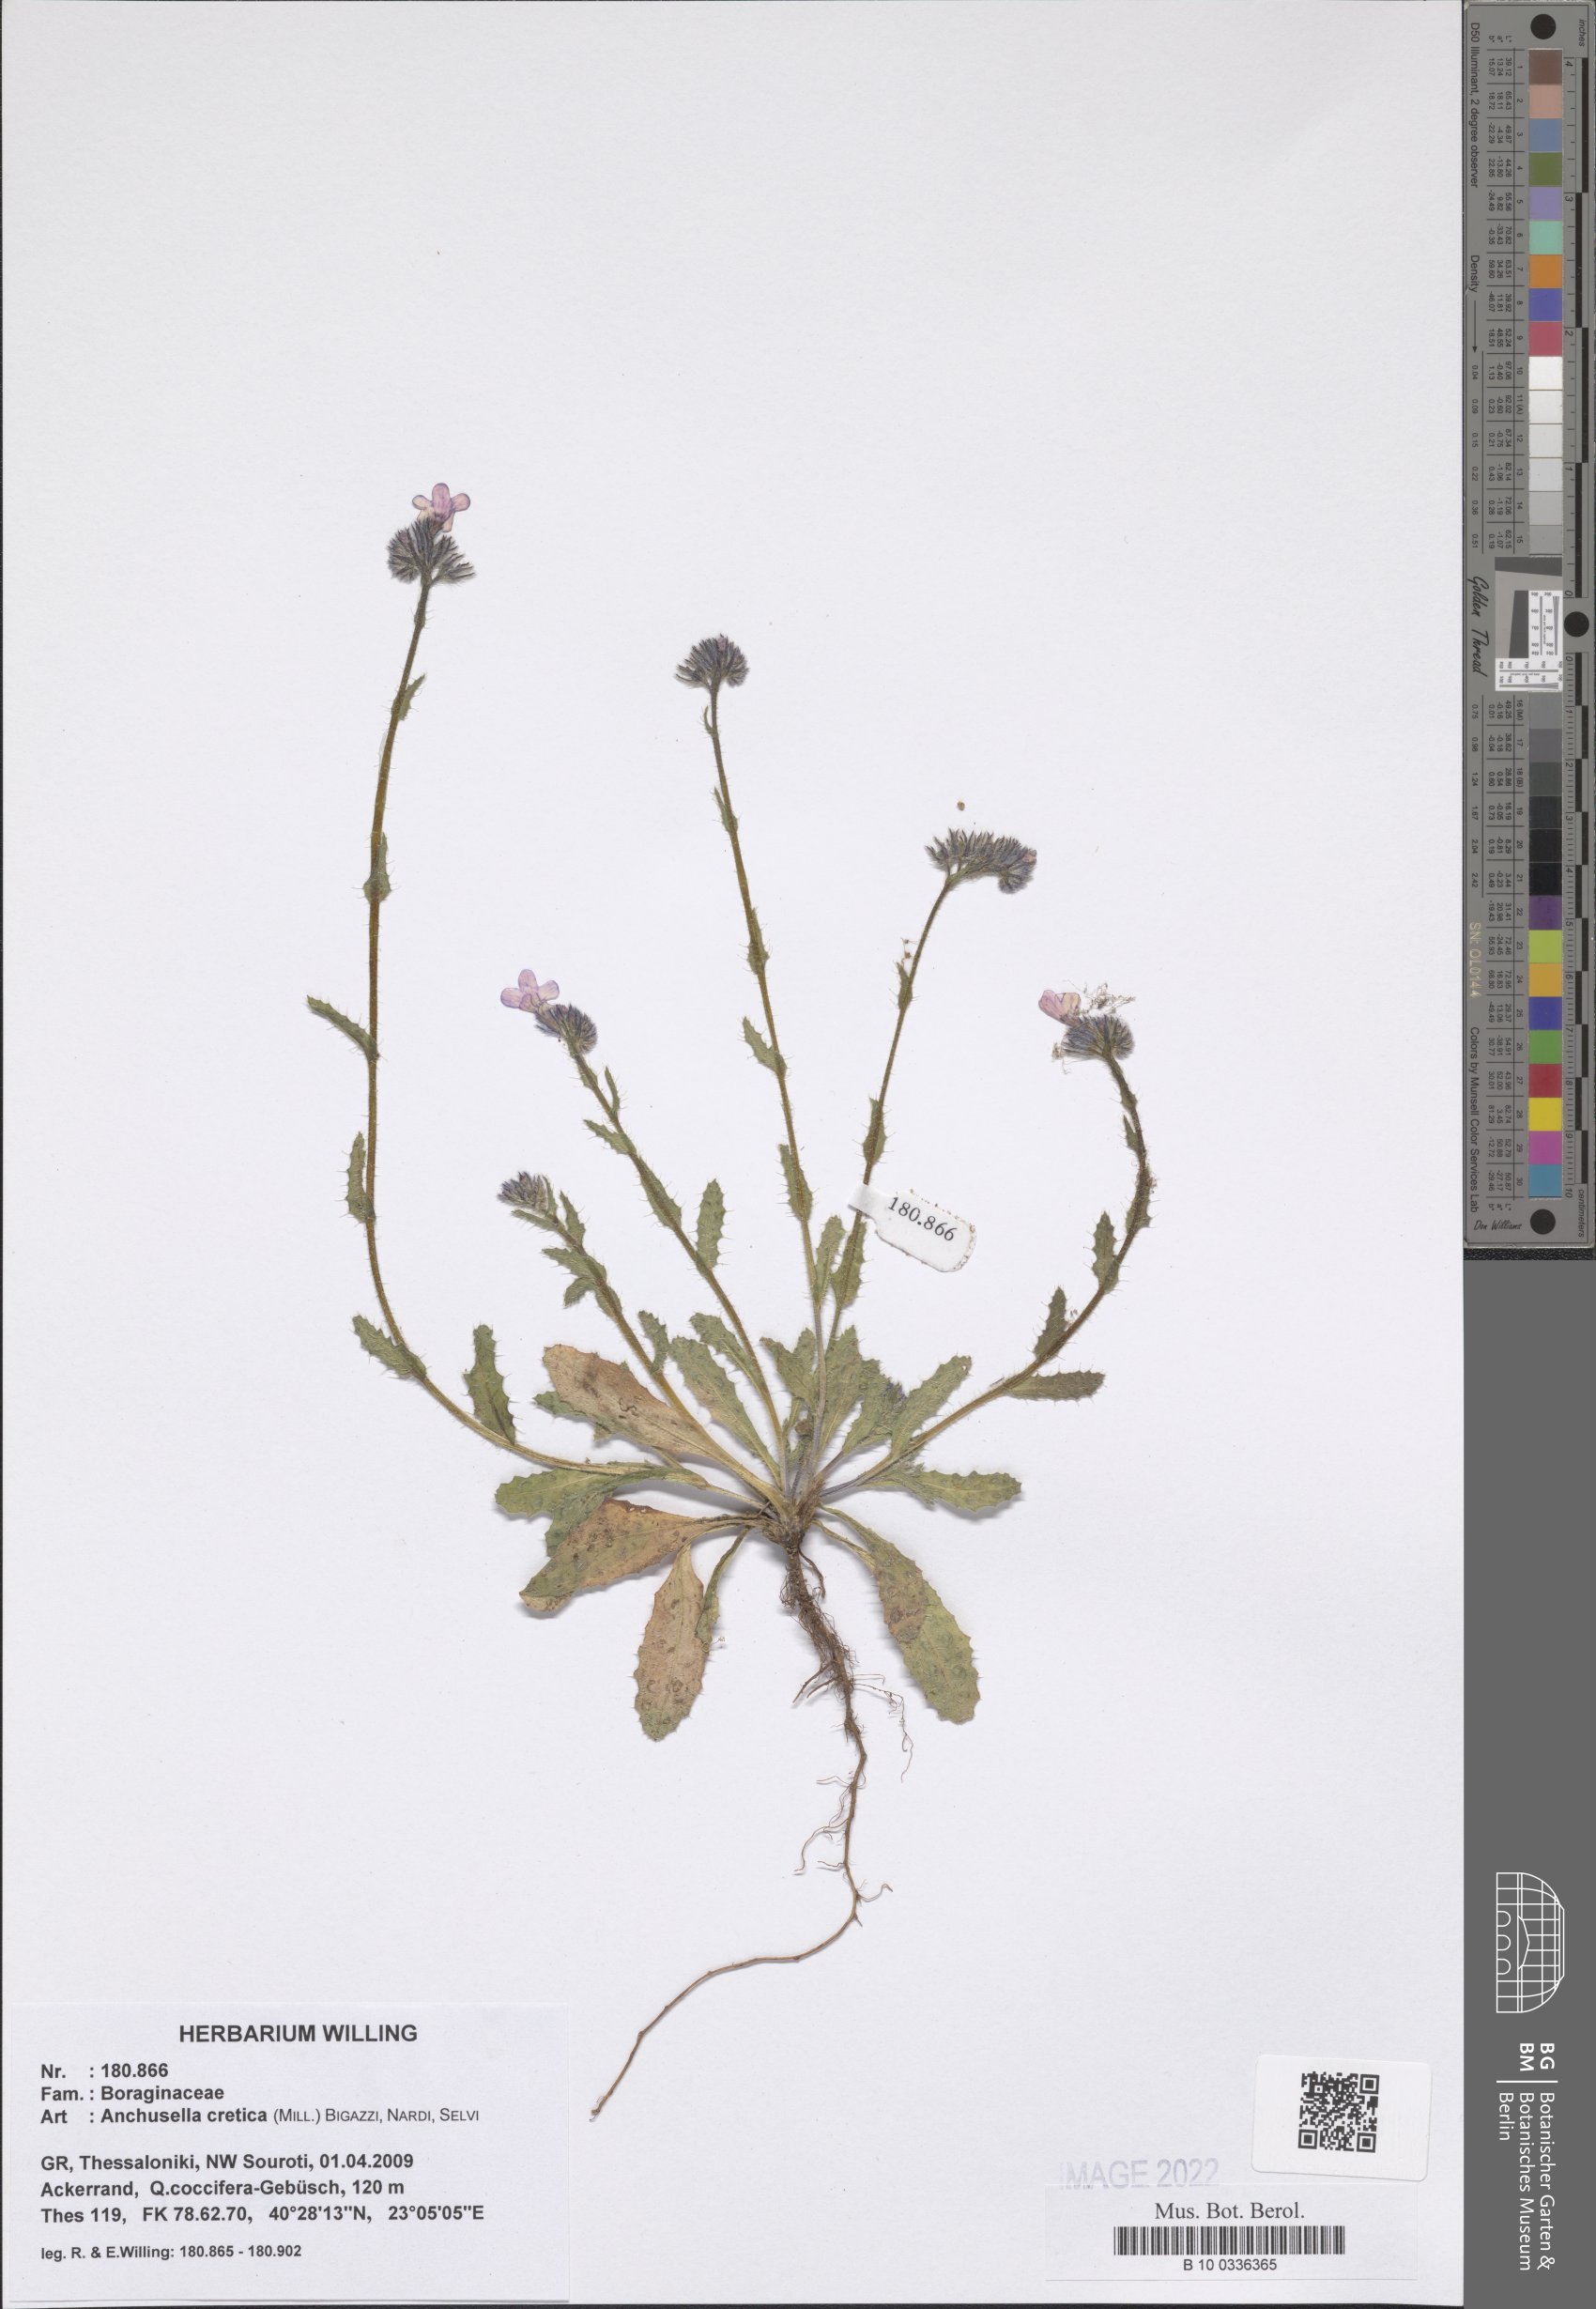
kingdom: Plantae
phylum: Tracheophyta
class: Magnoliopsida
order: Boraginales
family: Boraginaceae
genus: Anchusella
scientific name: Anchusella cretica
